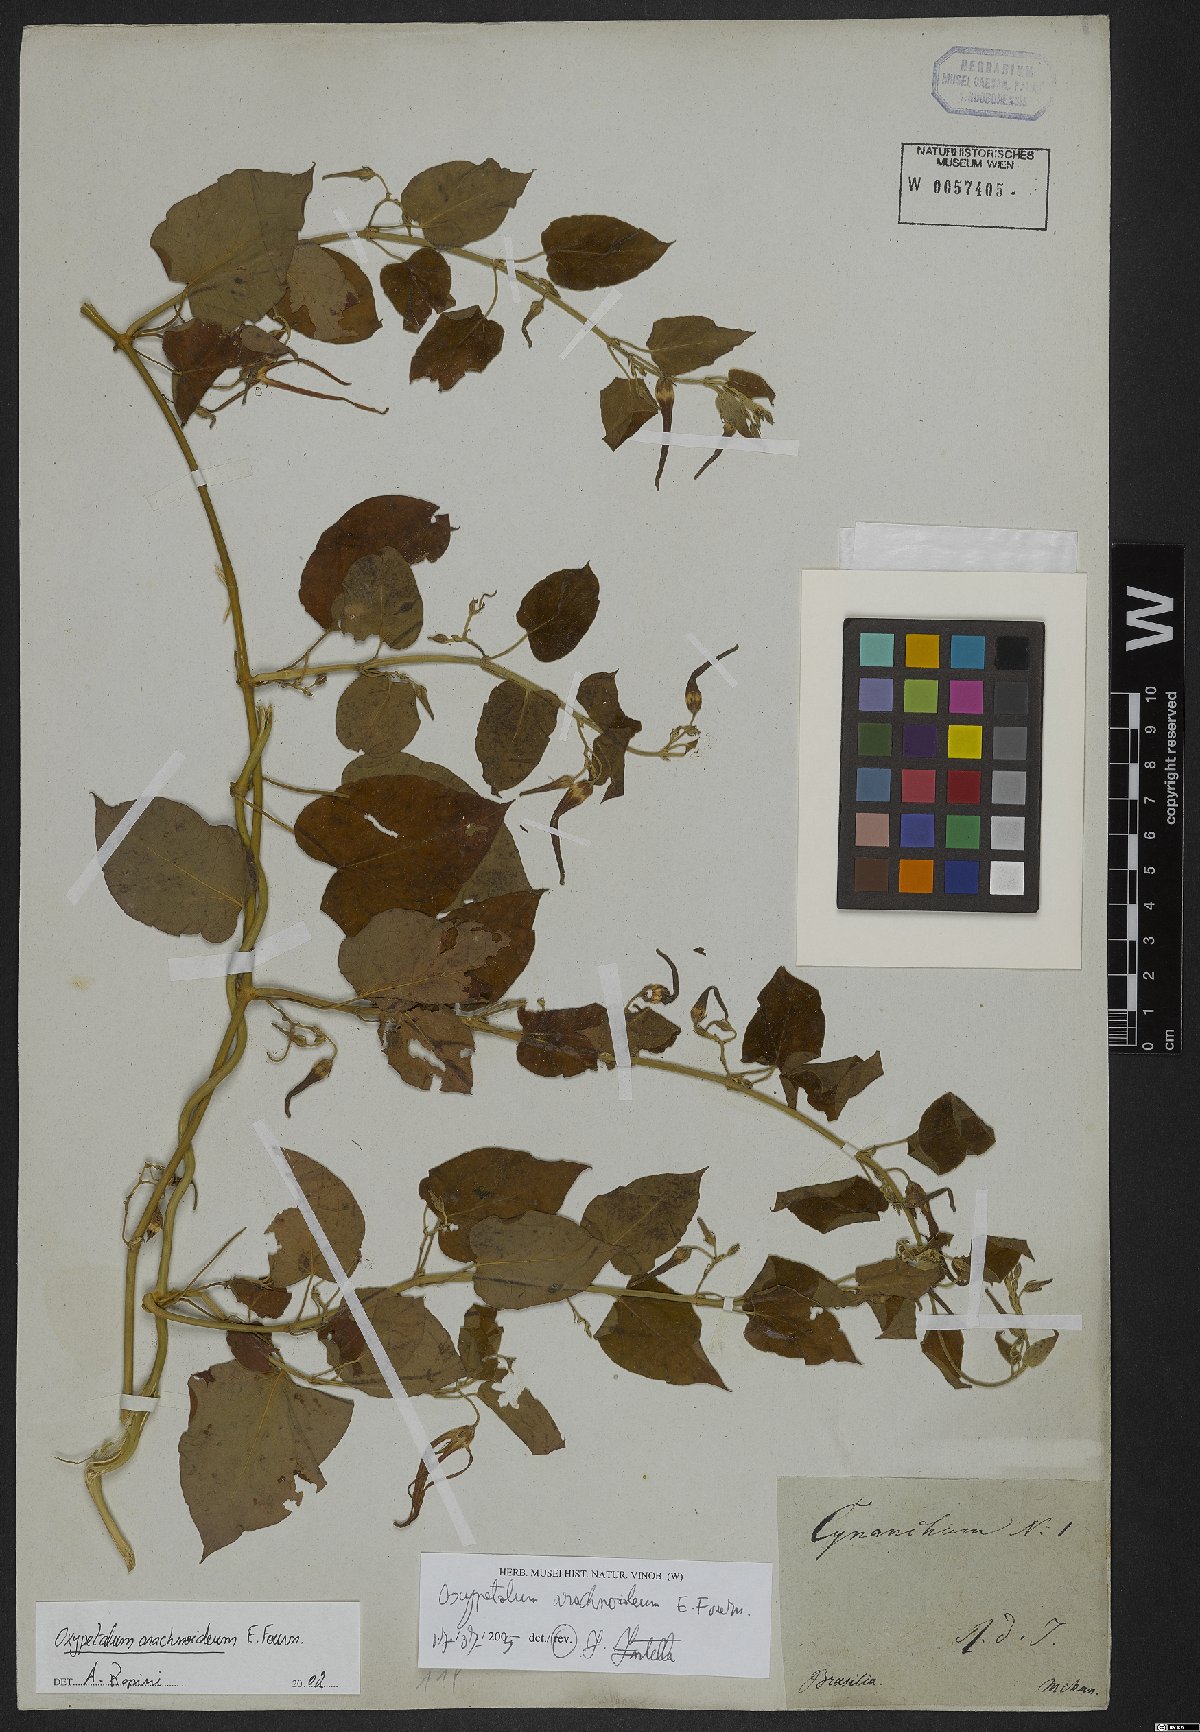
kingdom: Plantae
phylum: Tracheophyta
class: Magnoliopsida
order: Gentianales
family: Apocynaceae
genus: Oxypetalum
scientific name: Oxypetalum arachnoideum
